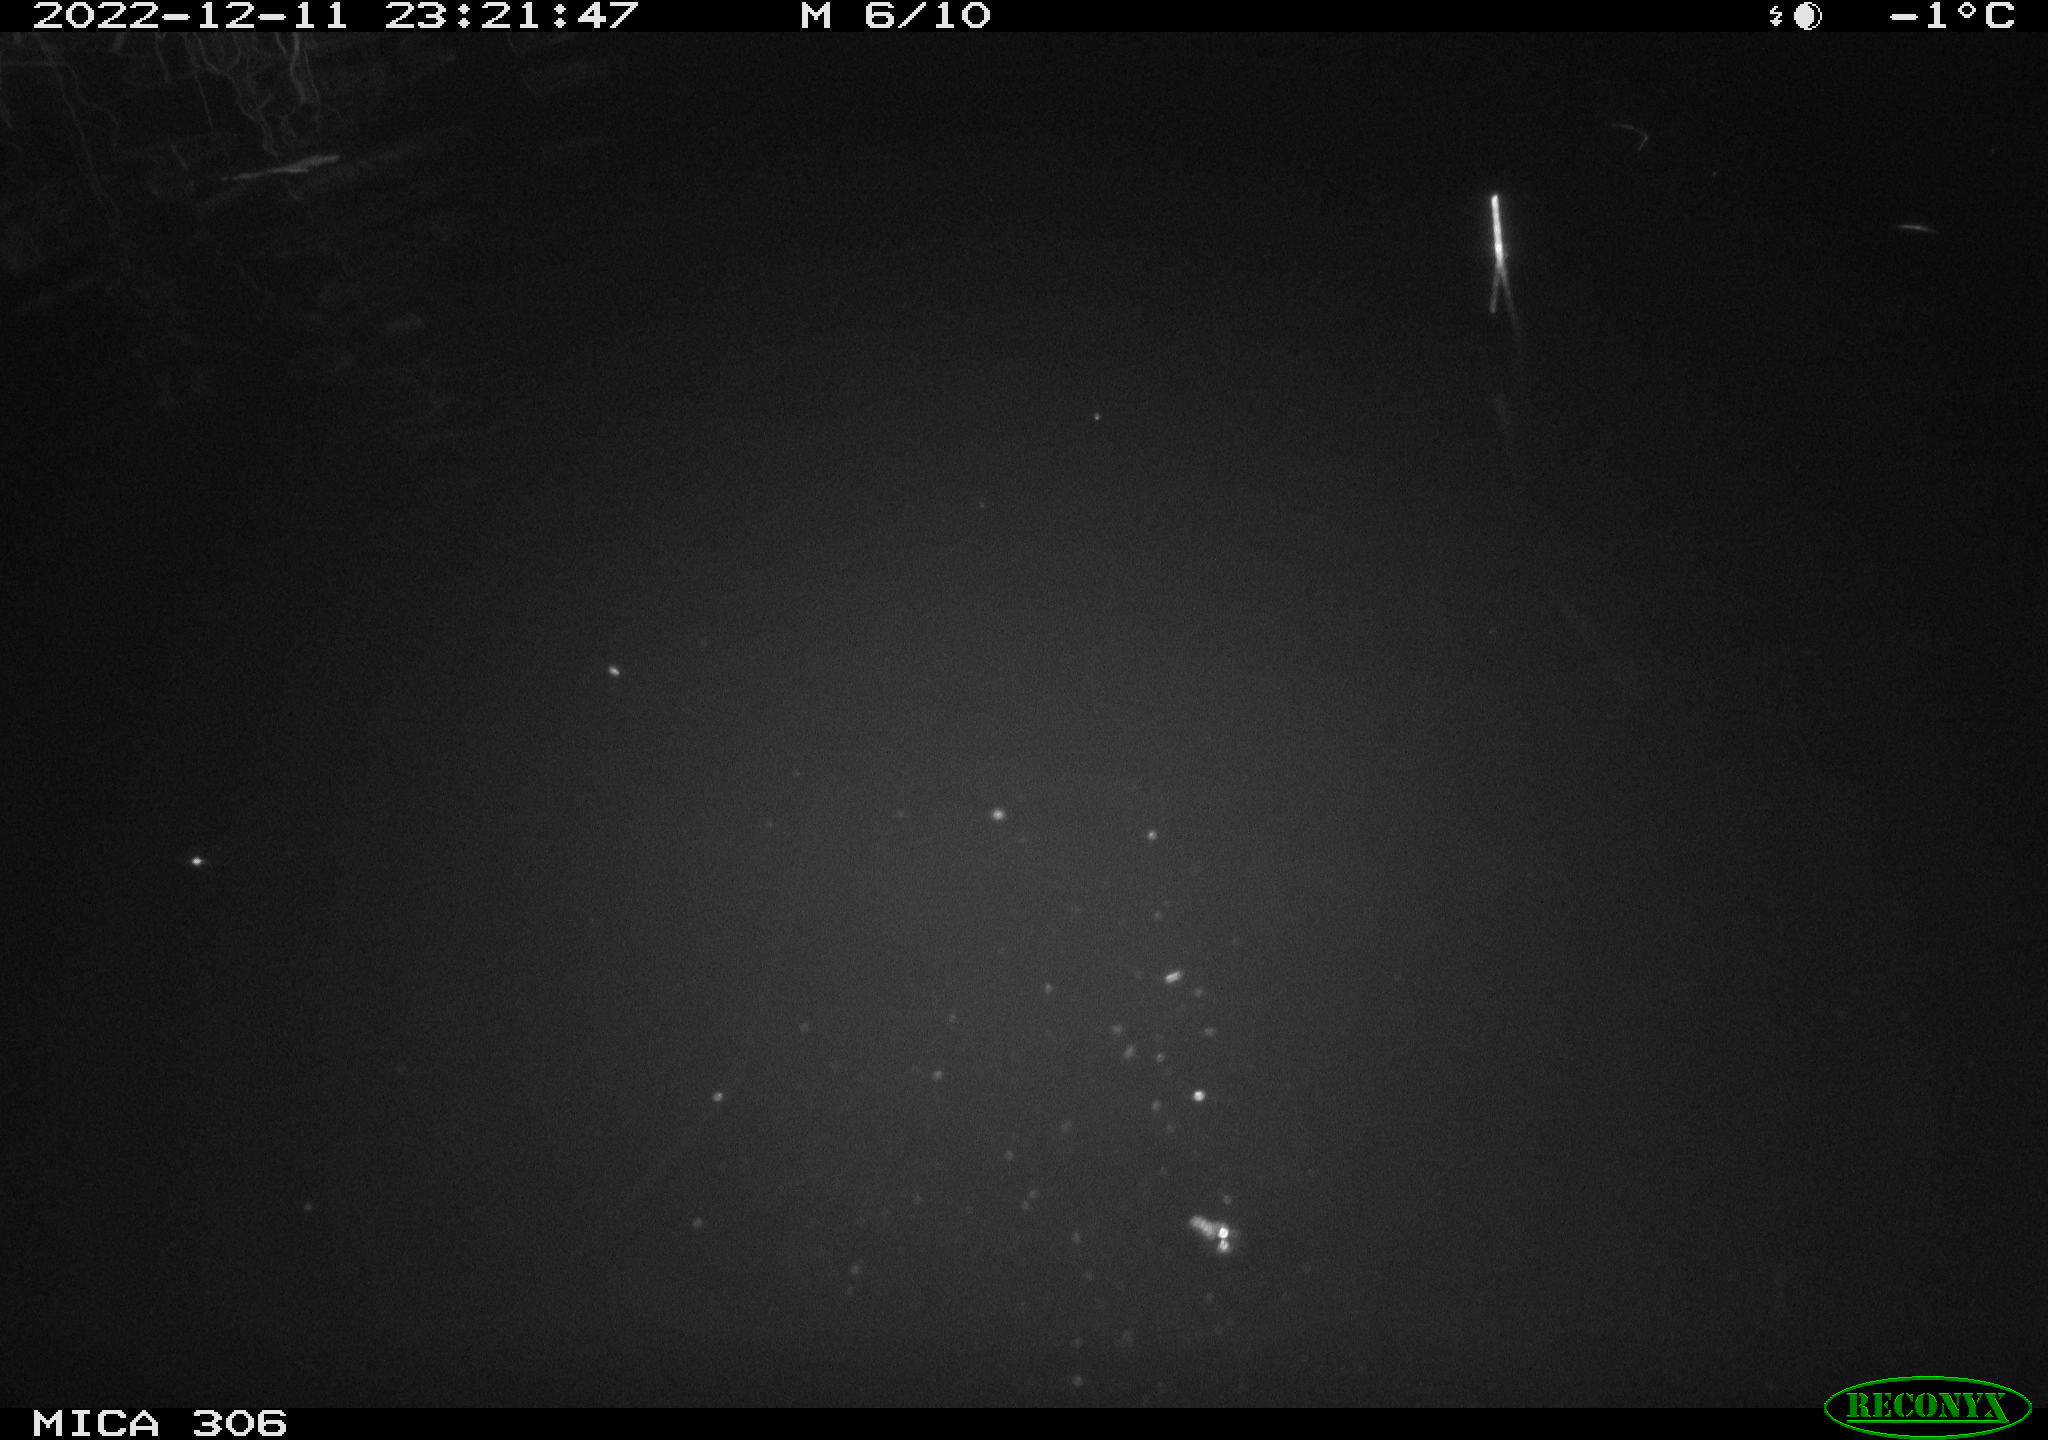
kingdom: Animalia
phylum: Chordata
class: Mammalia
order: Rodentia
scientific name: Rodentia
